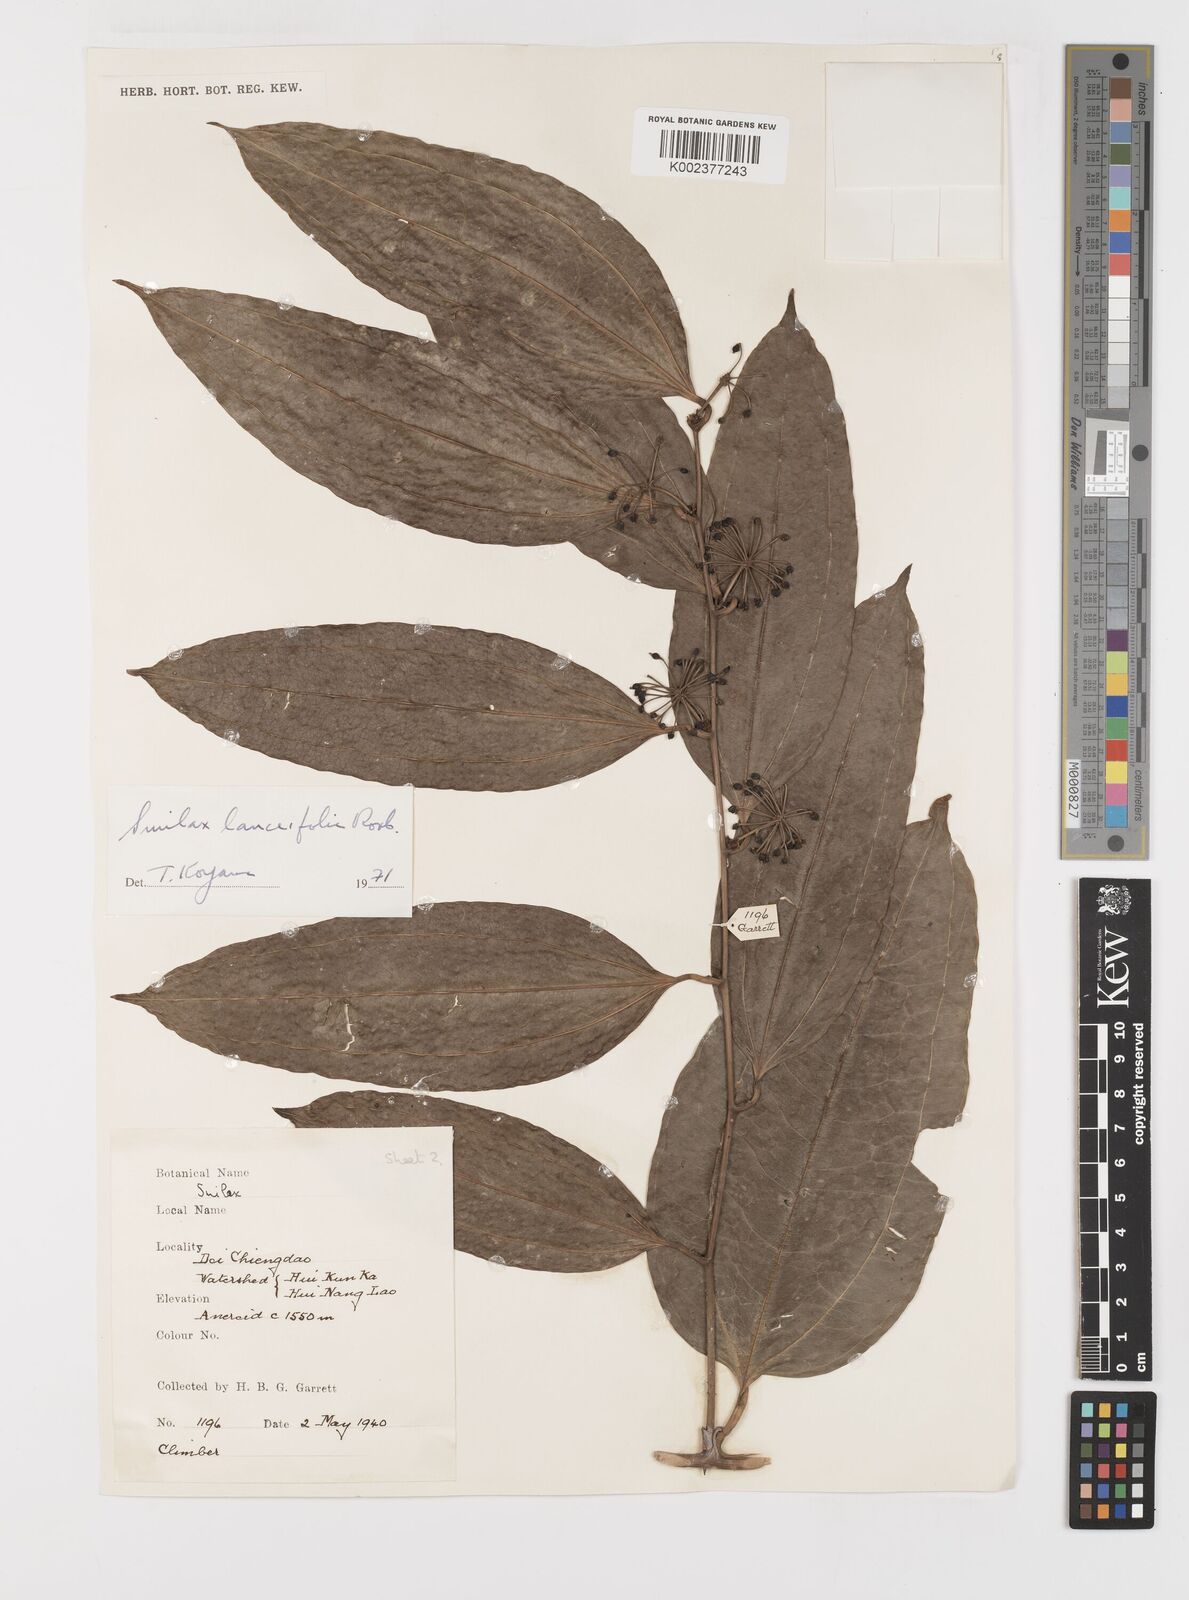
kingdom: Plantae
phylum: Tracheophyta
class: Liliopsida
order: Liliales
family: Smilacaceae
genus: Smilax
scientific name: Smilax lanceifolia
